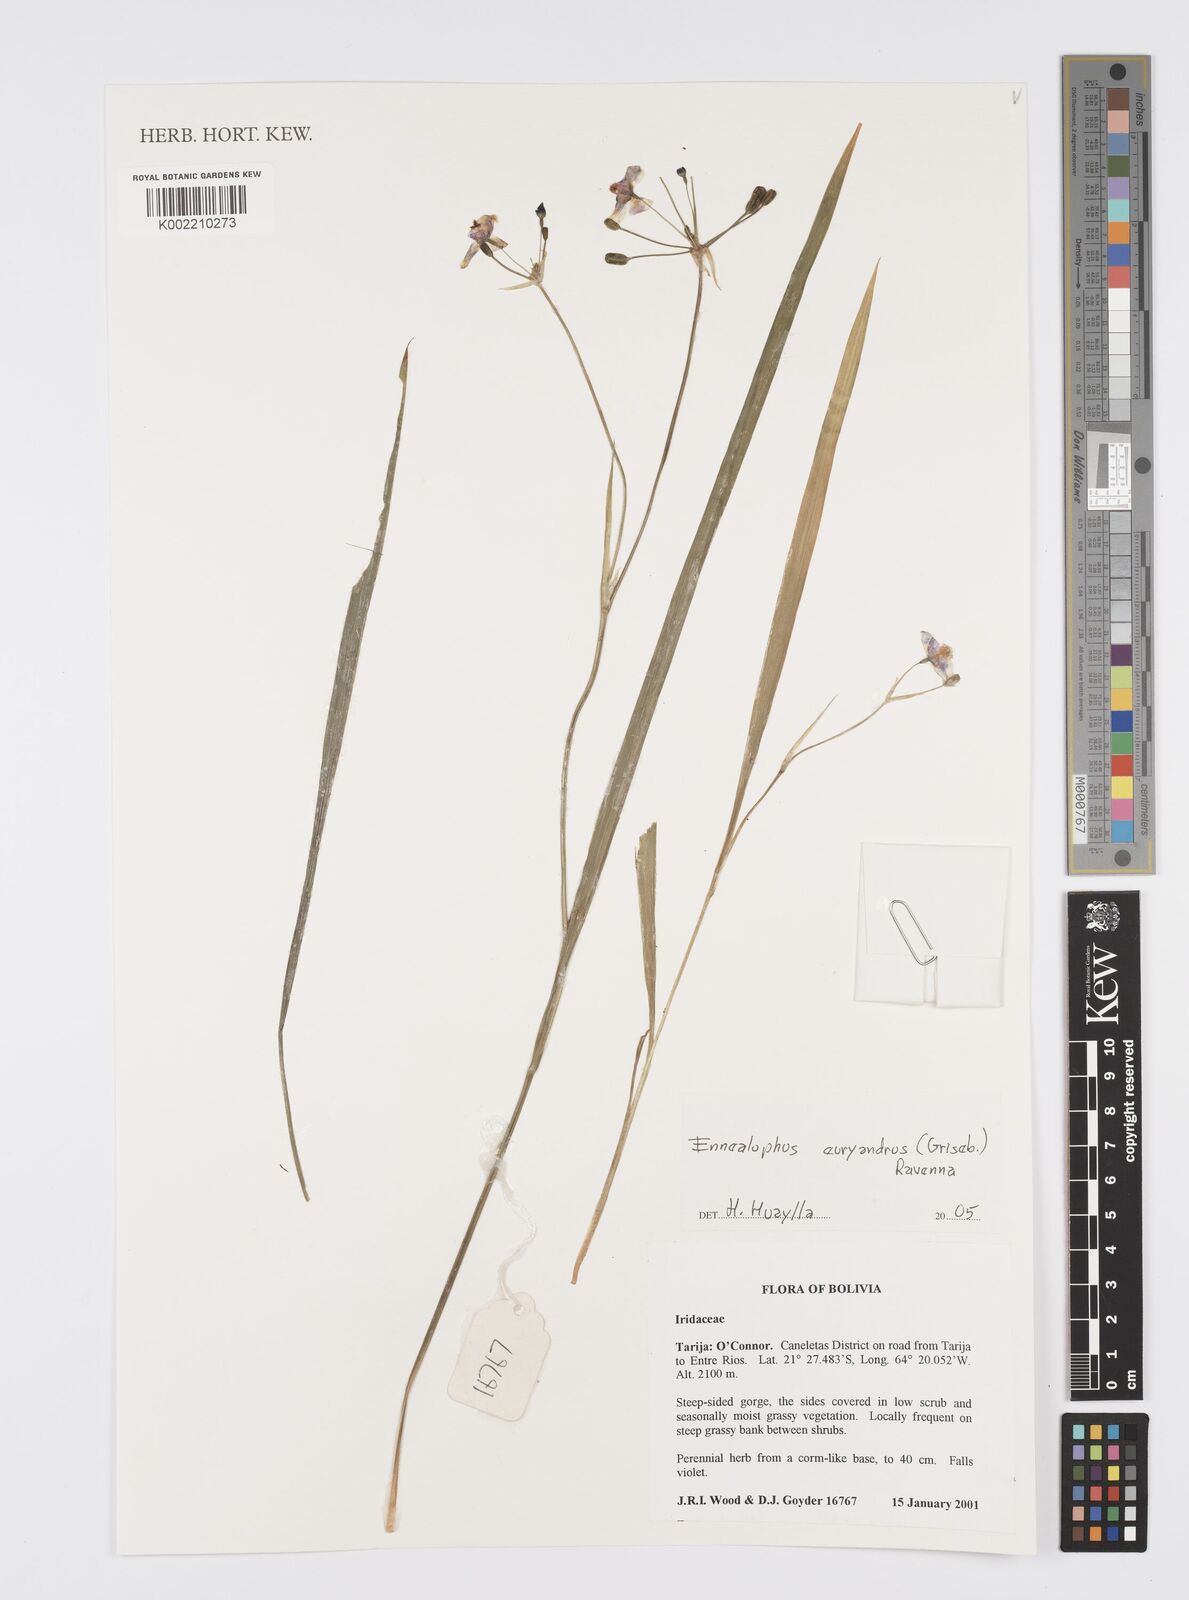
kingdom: Plantae
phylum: Tracheophyta
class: Liliopsida
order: Asparagales
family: Iridaceae
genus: Ennealophus
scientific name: Ennealophus euryandrus
